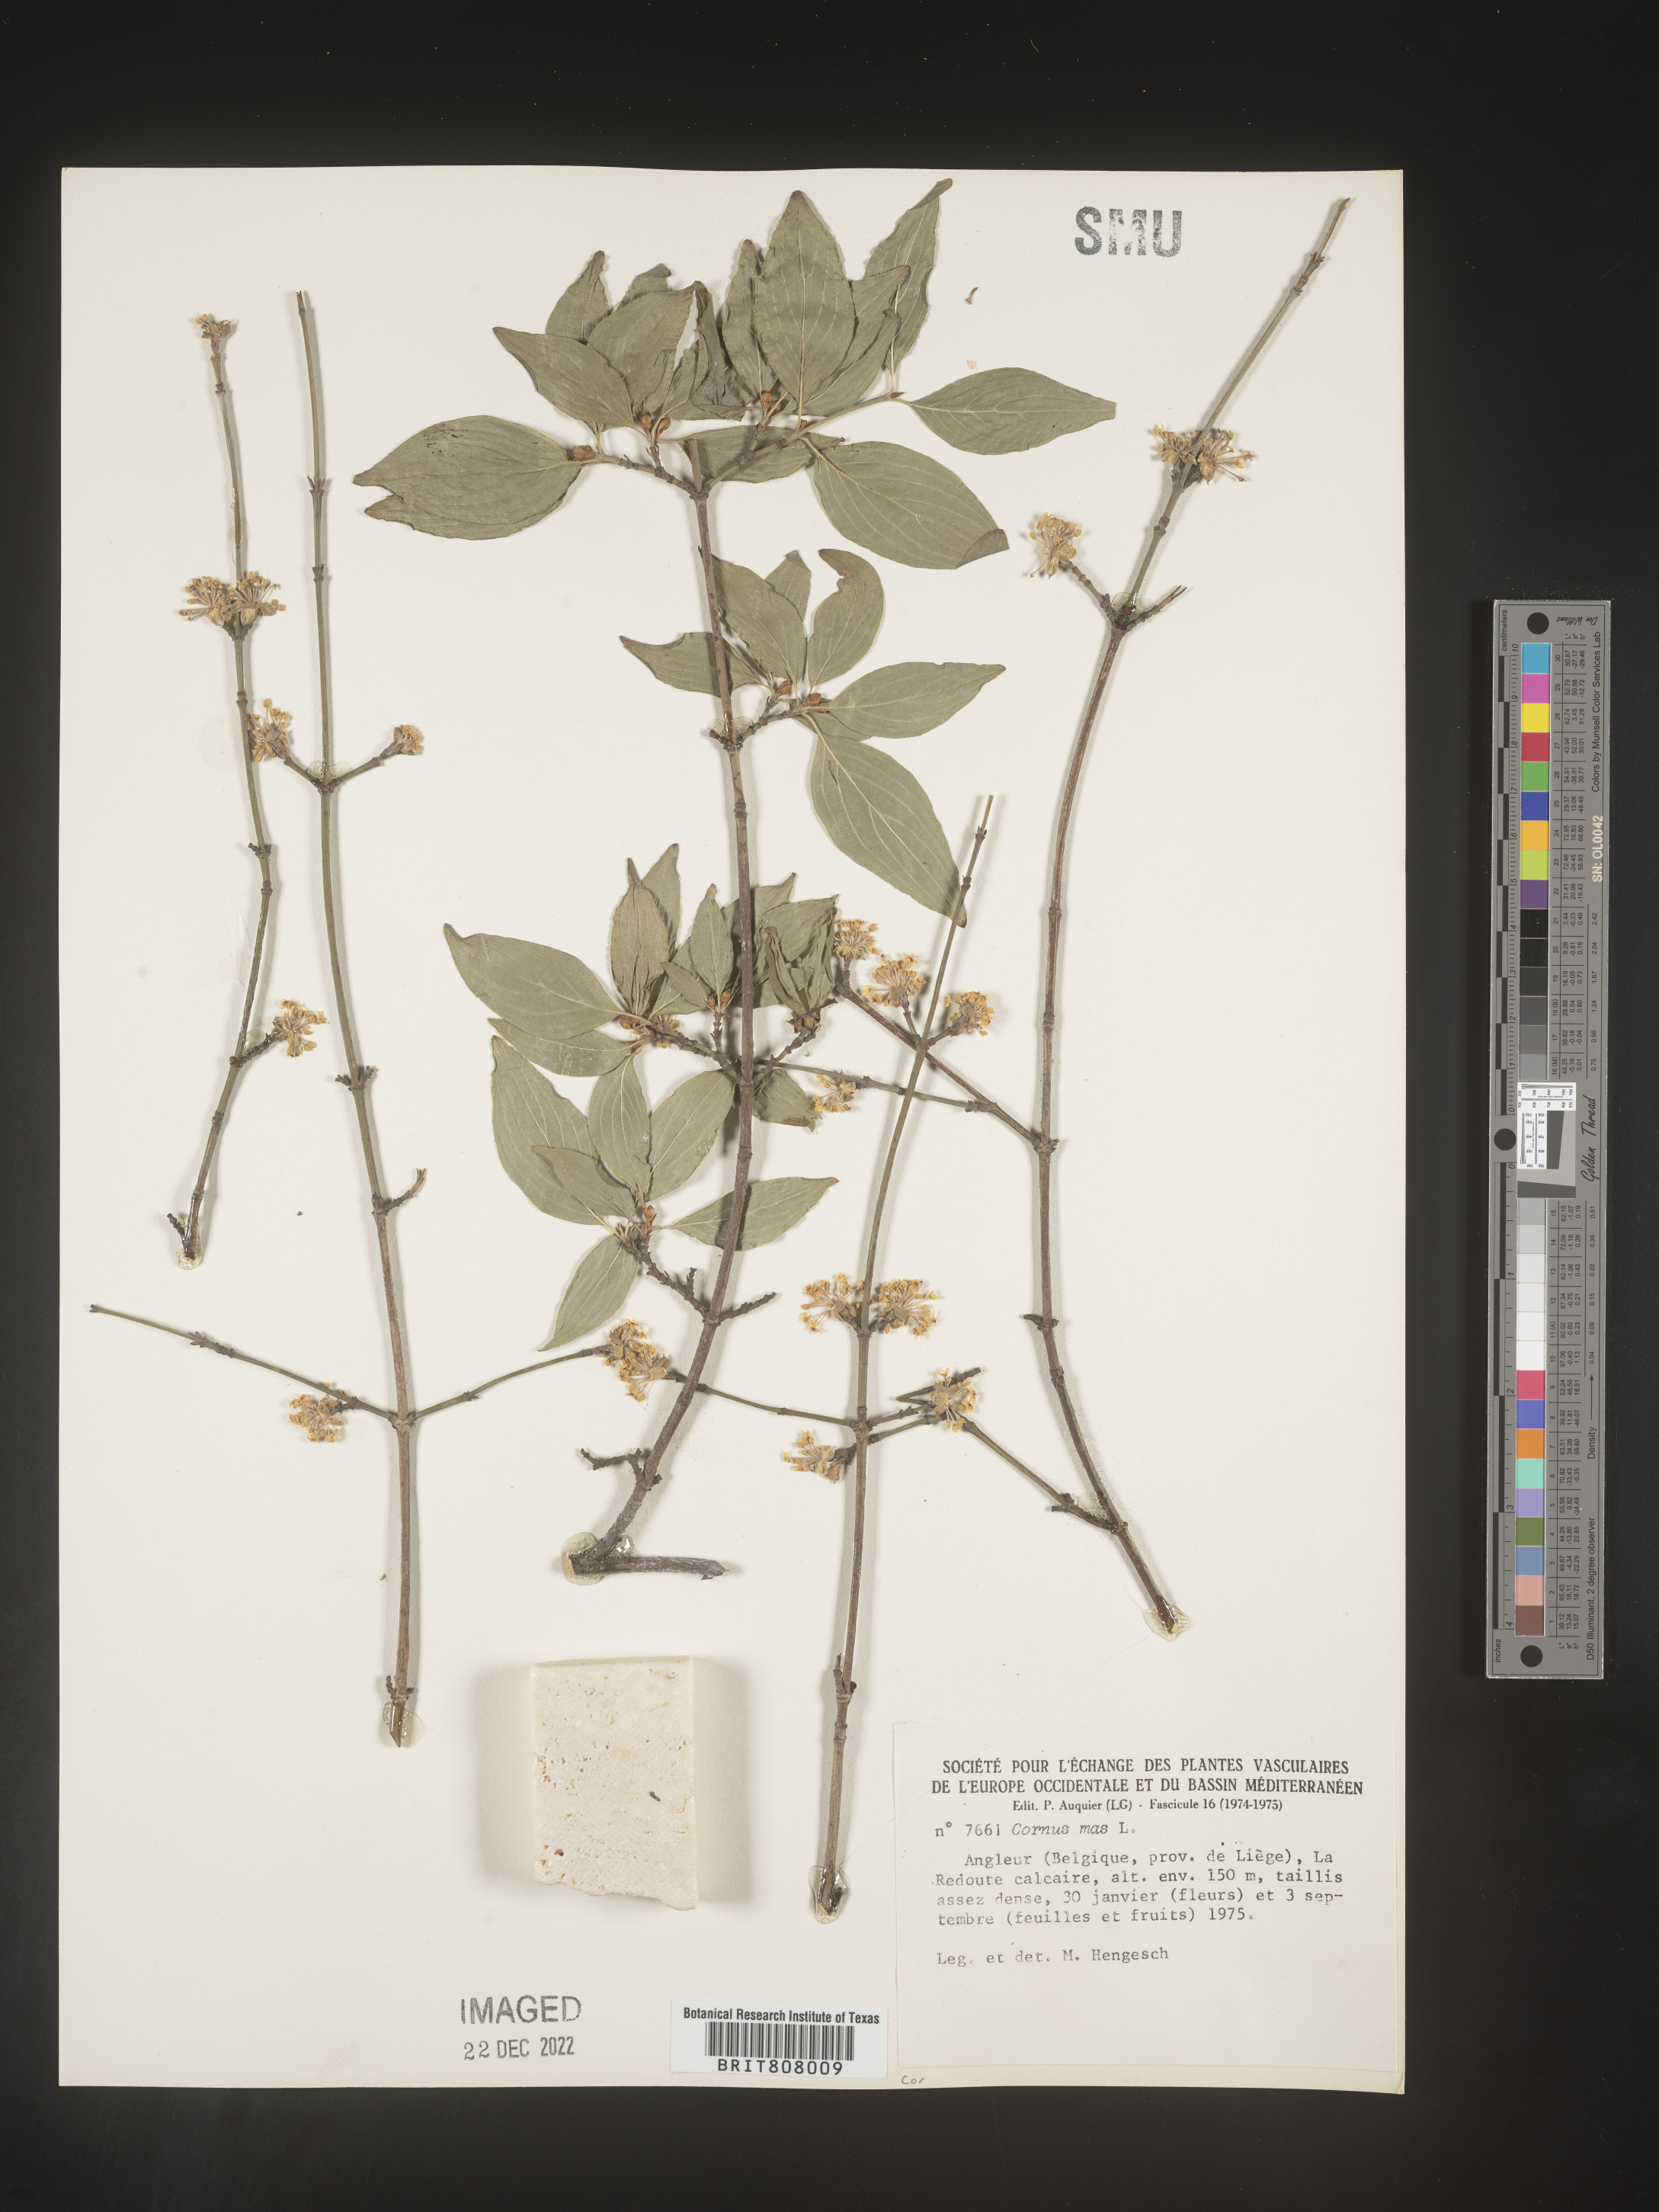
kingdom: Plantae
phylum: Tracheophyta
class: Magnoliopsida
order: Cornales
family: Cornaceae
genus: Cornus
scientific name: Cornus
